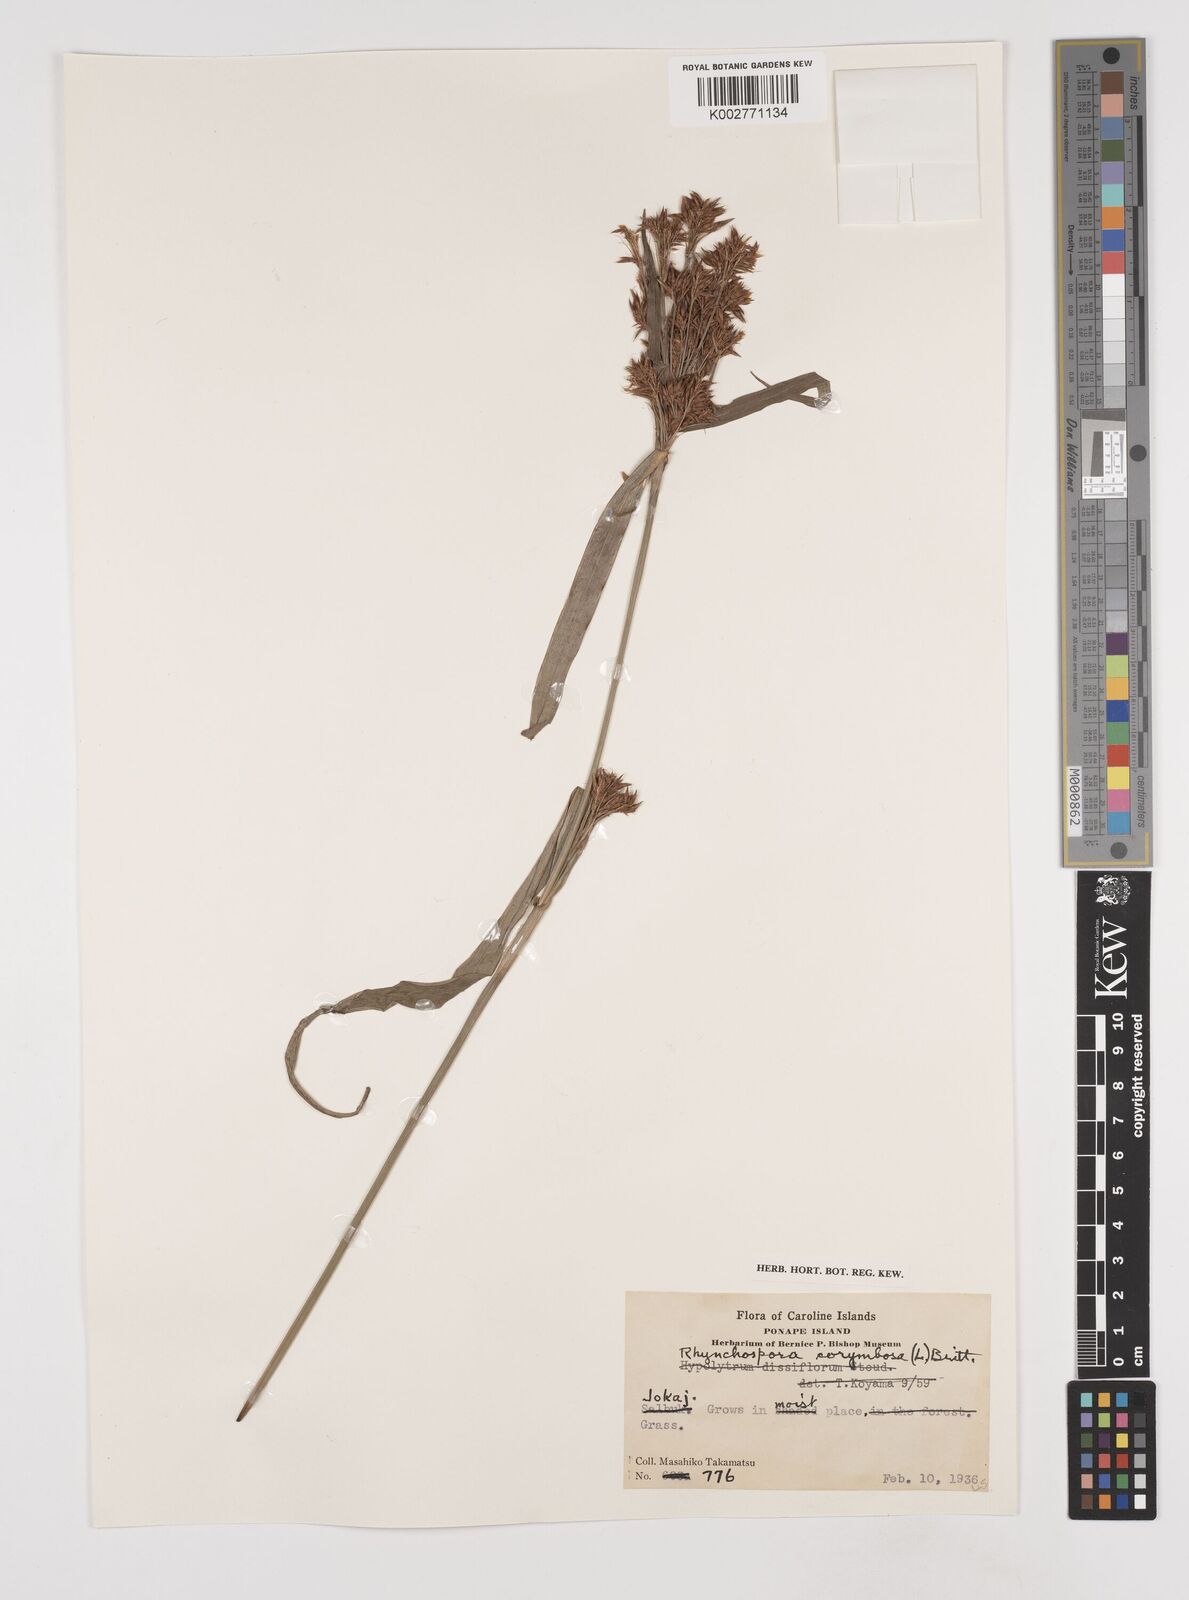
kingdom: Plantae
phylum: Tracheophyta
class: Liliopsida
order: Poales
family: Cyperaceae
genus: Rhynchospora
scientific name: Rhynchospora corymbosa
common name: Golden beak sedge
